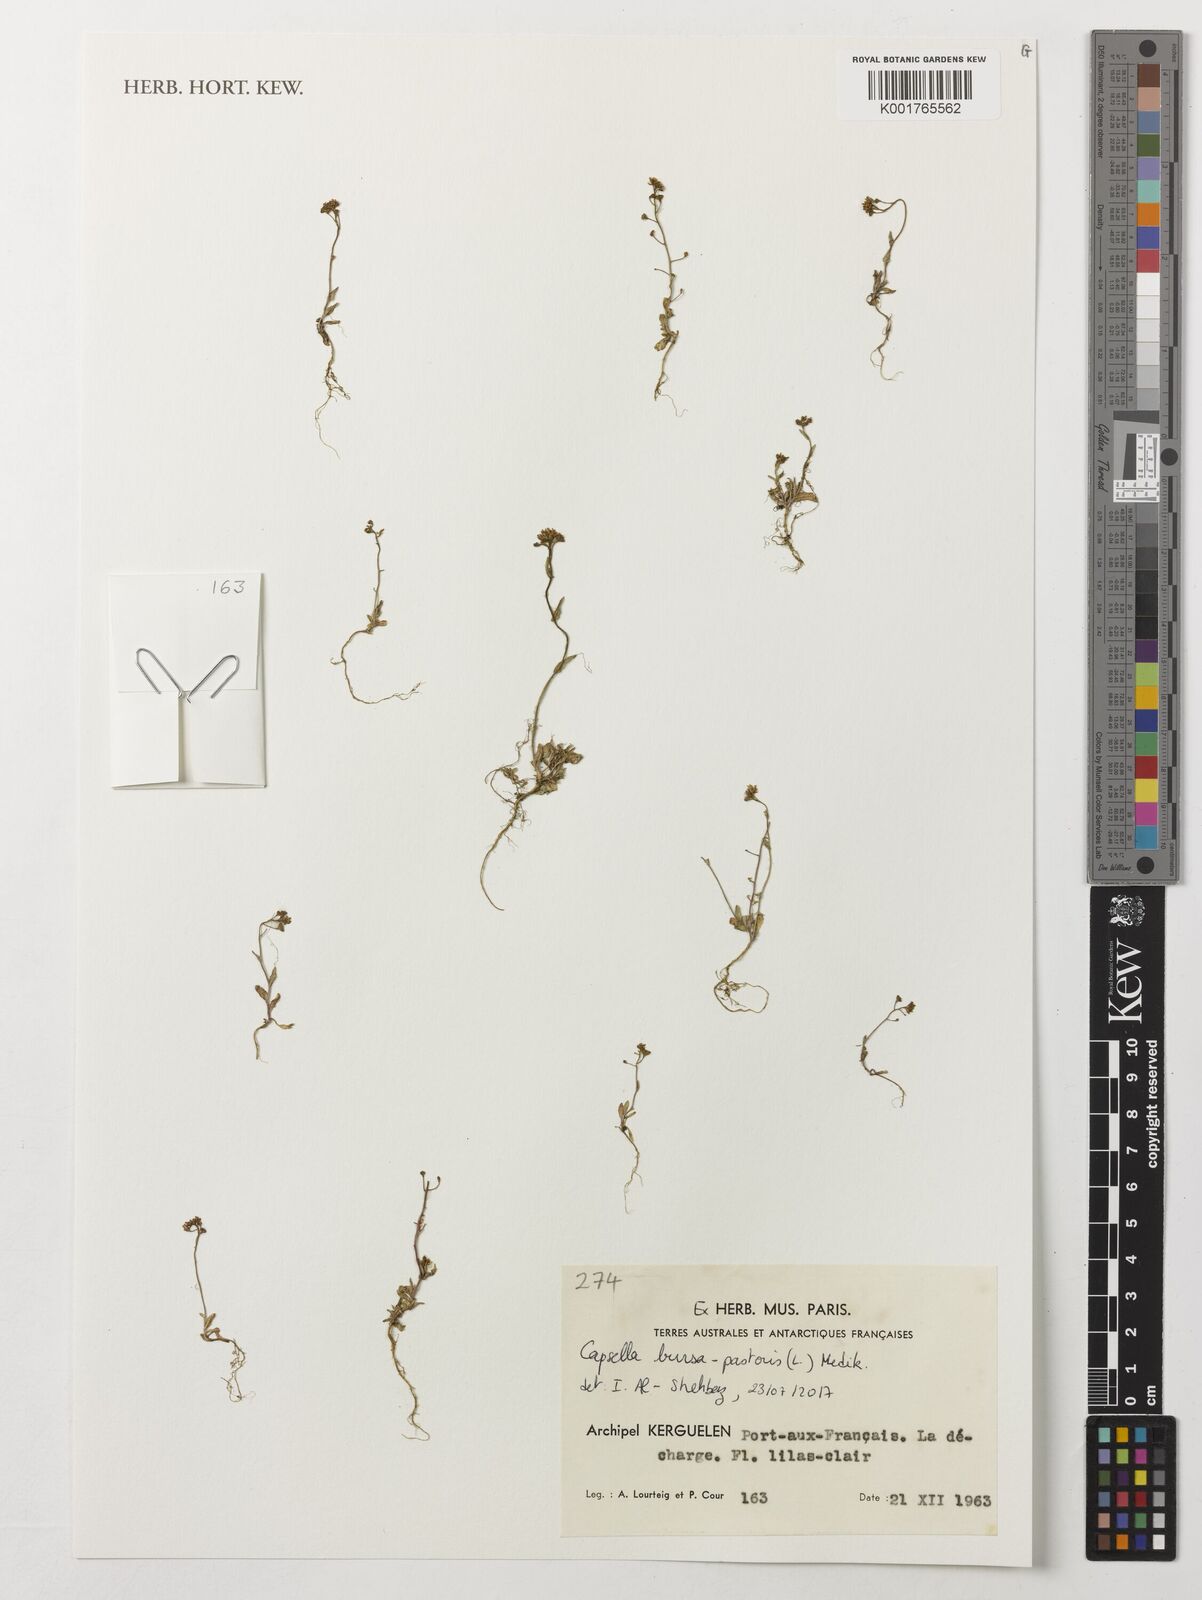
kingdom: Plantae
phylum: Tracheophyta
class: Magnoliopsida
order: Brassicales
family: Brassicaceae
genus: Capsella
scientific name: Capsella bursa-pastoris
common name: Shepherd's purse
